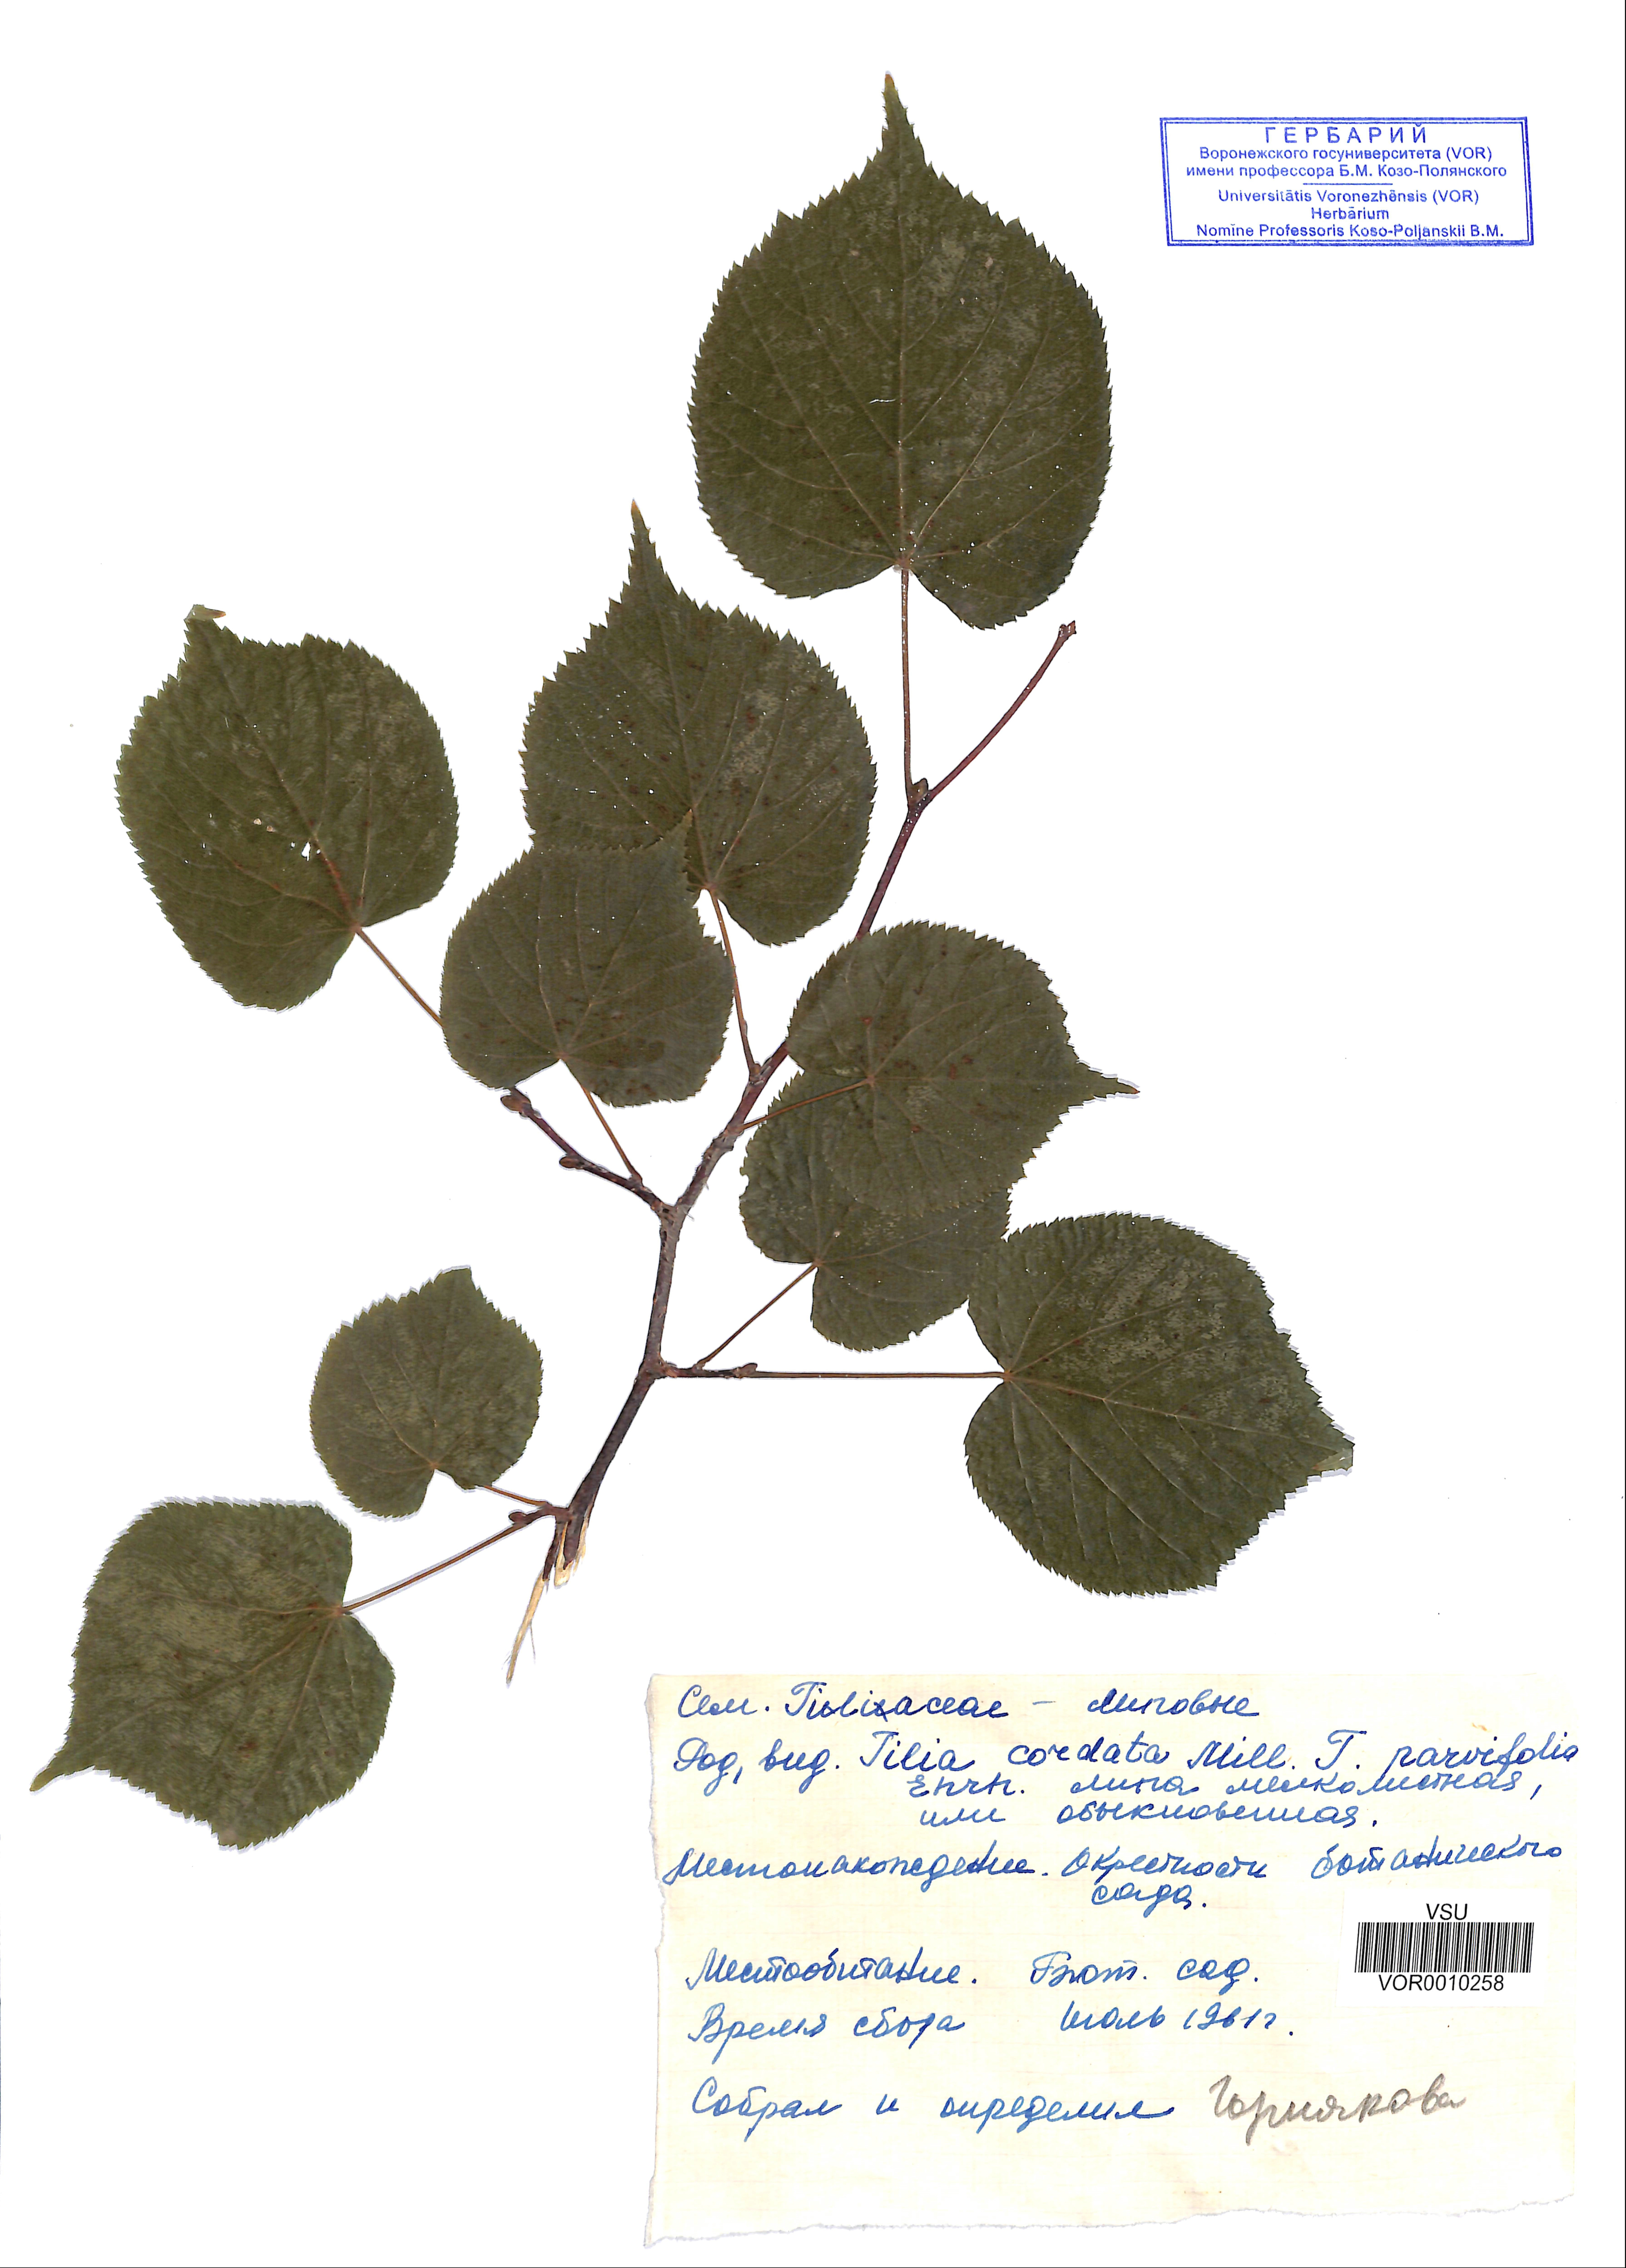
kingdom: Plantae
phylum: Tracheophyta
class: Magnoliopsida
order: Malvales
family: Malvaceae
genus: Tilia
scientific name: Tilia cordata
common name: Small-leaved lime
